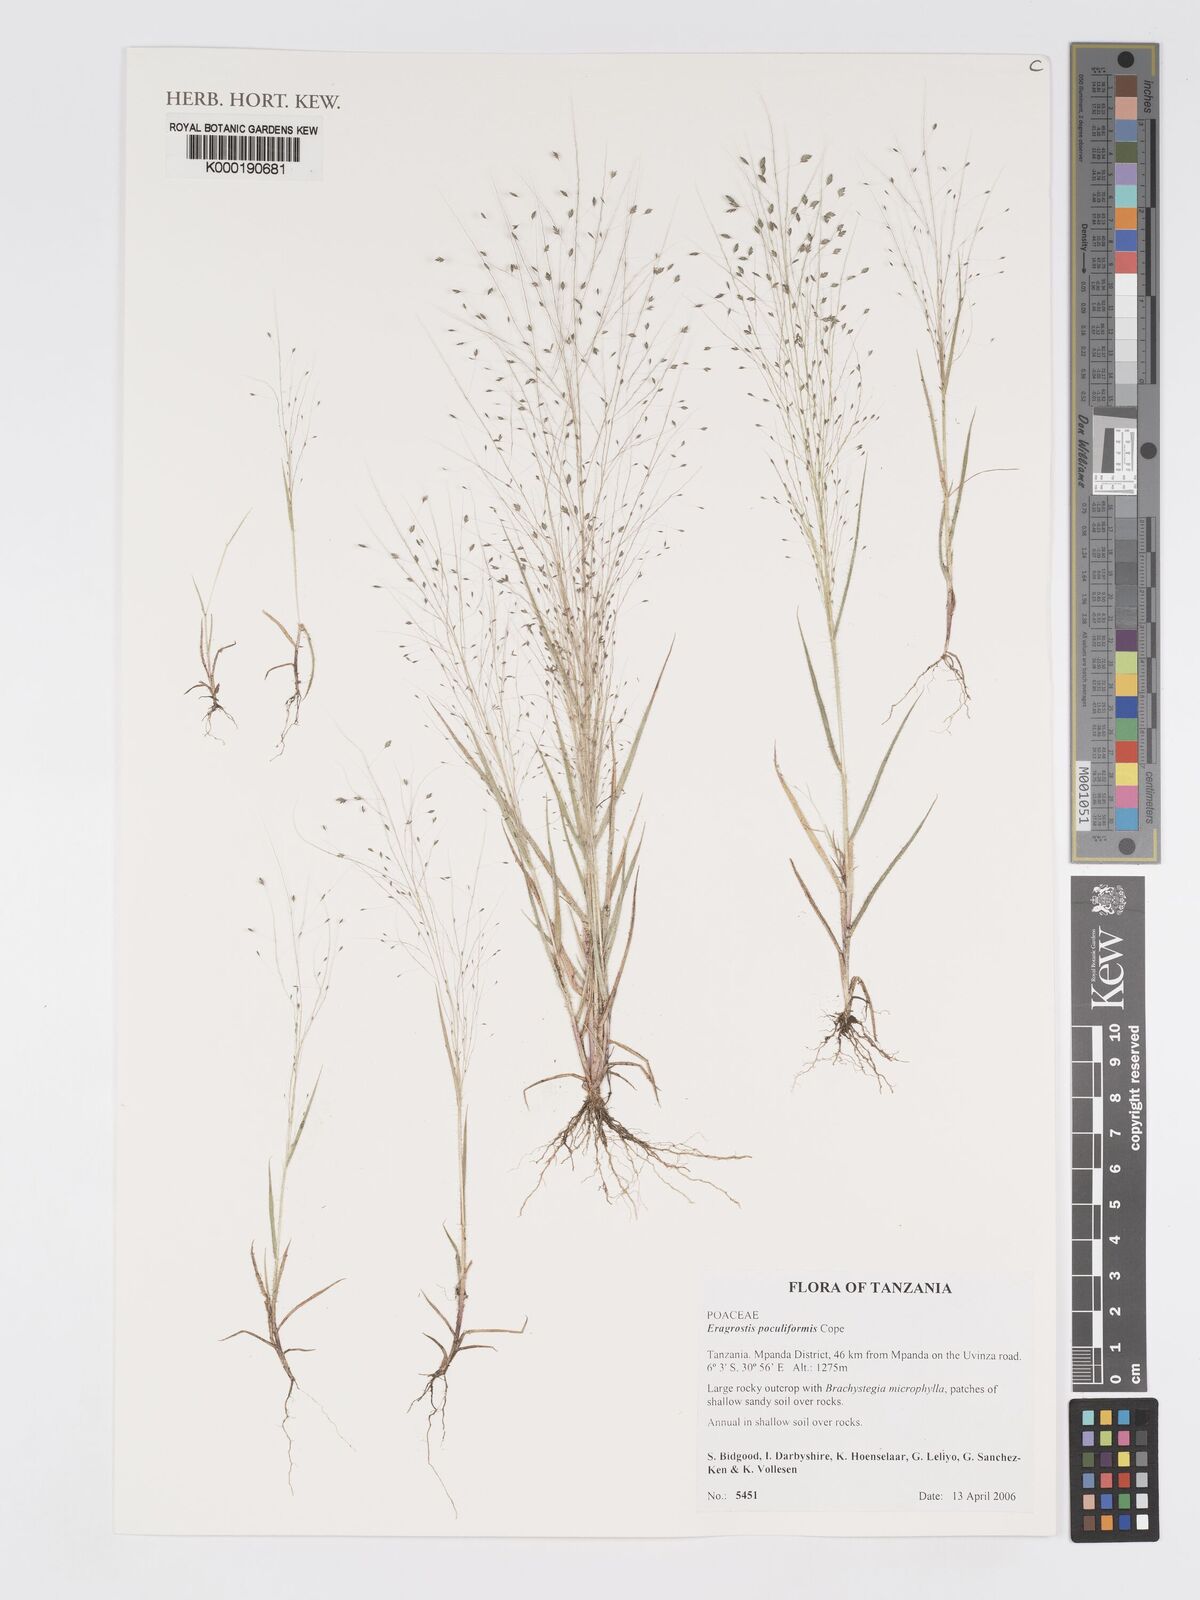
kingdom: Plantae
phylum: Tracheophyta
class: Liliopsida
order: Poales
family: Poaceae
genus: Eragrostis
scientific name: Eragrostis poculiformis
